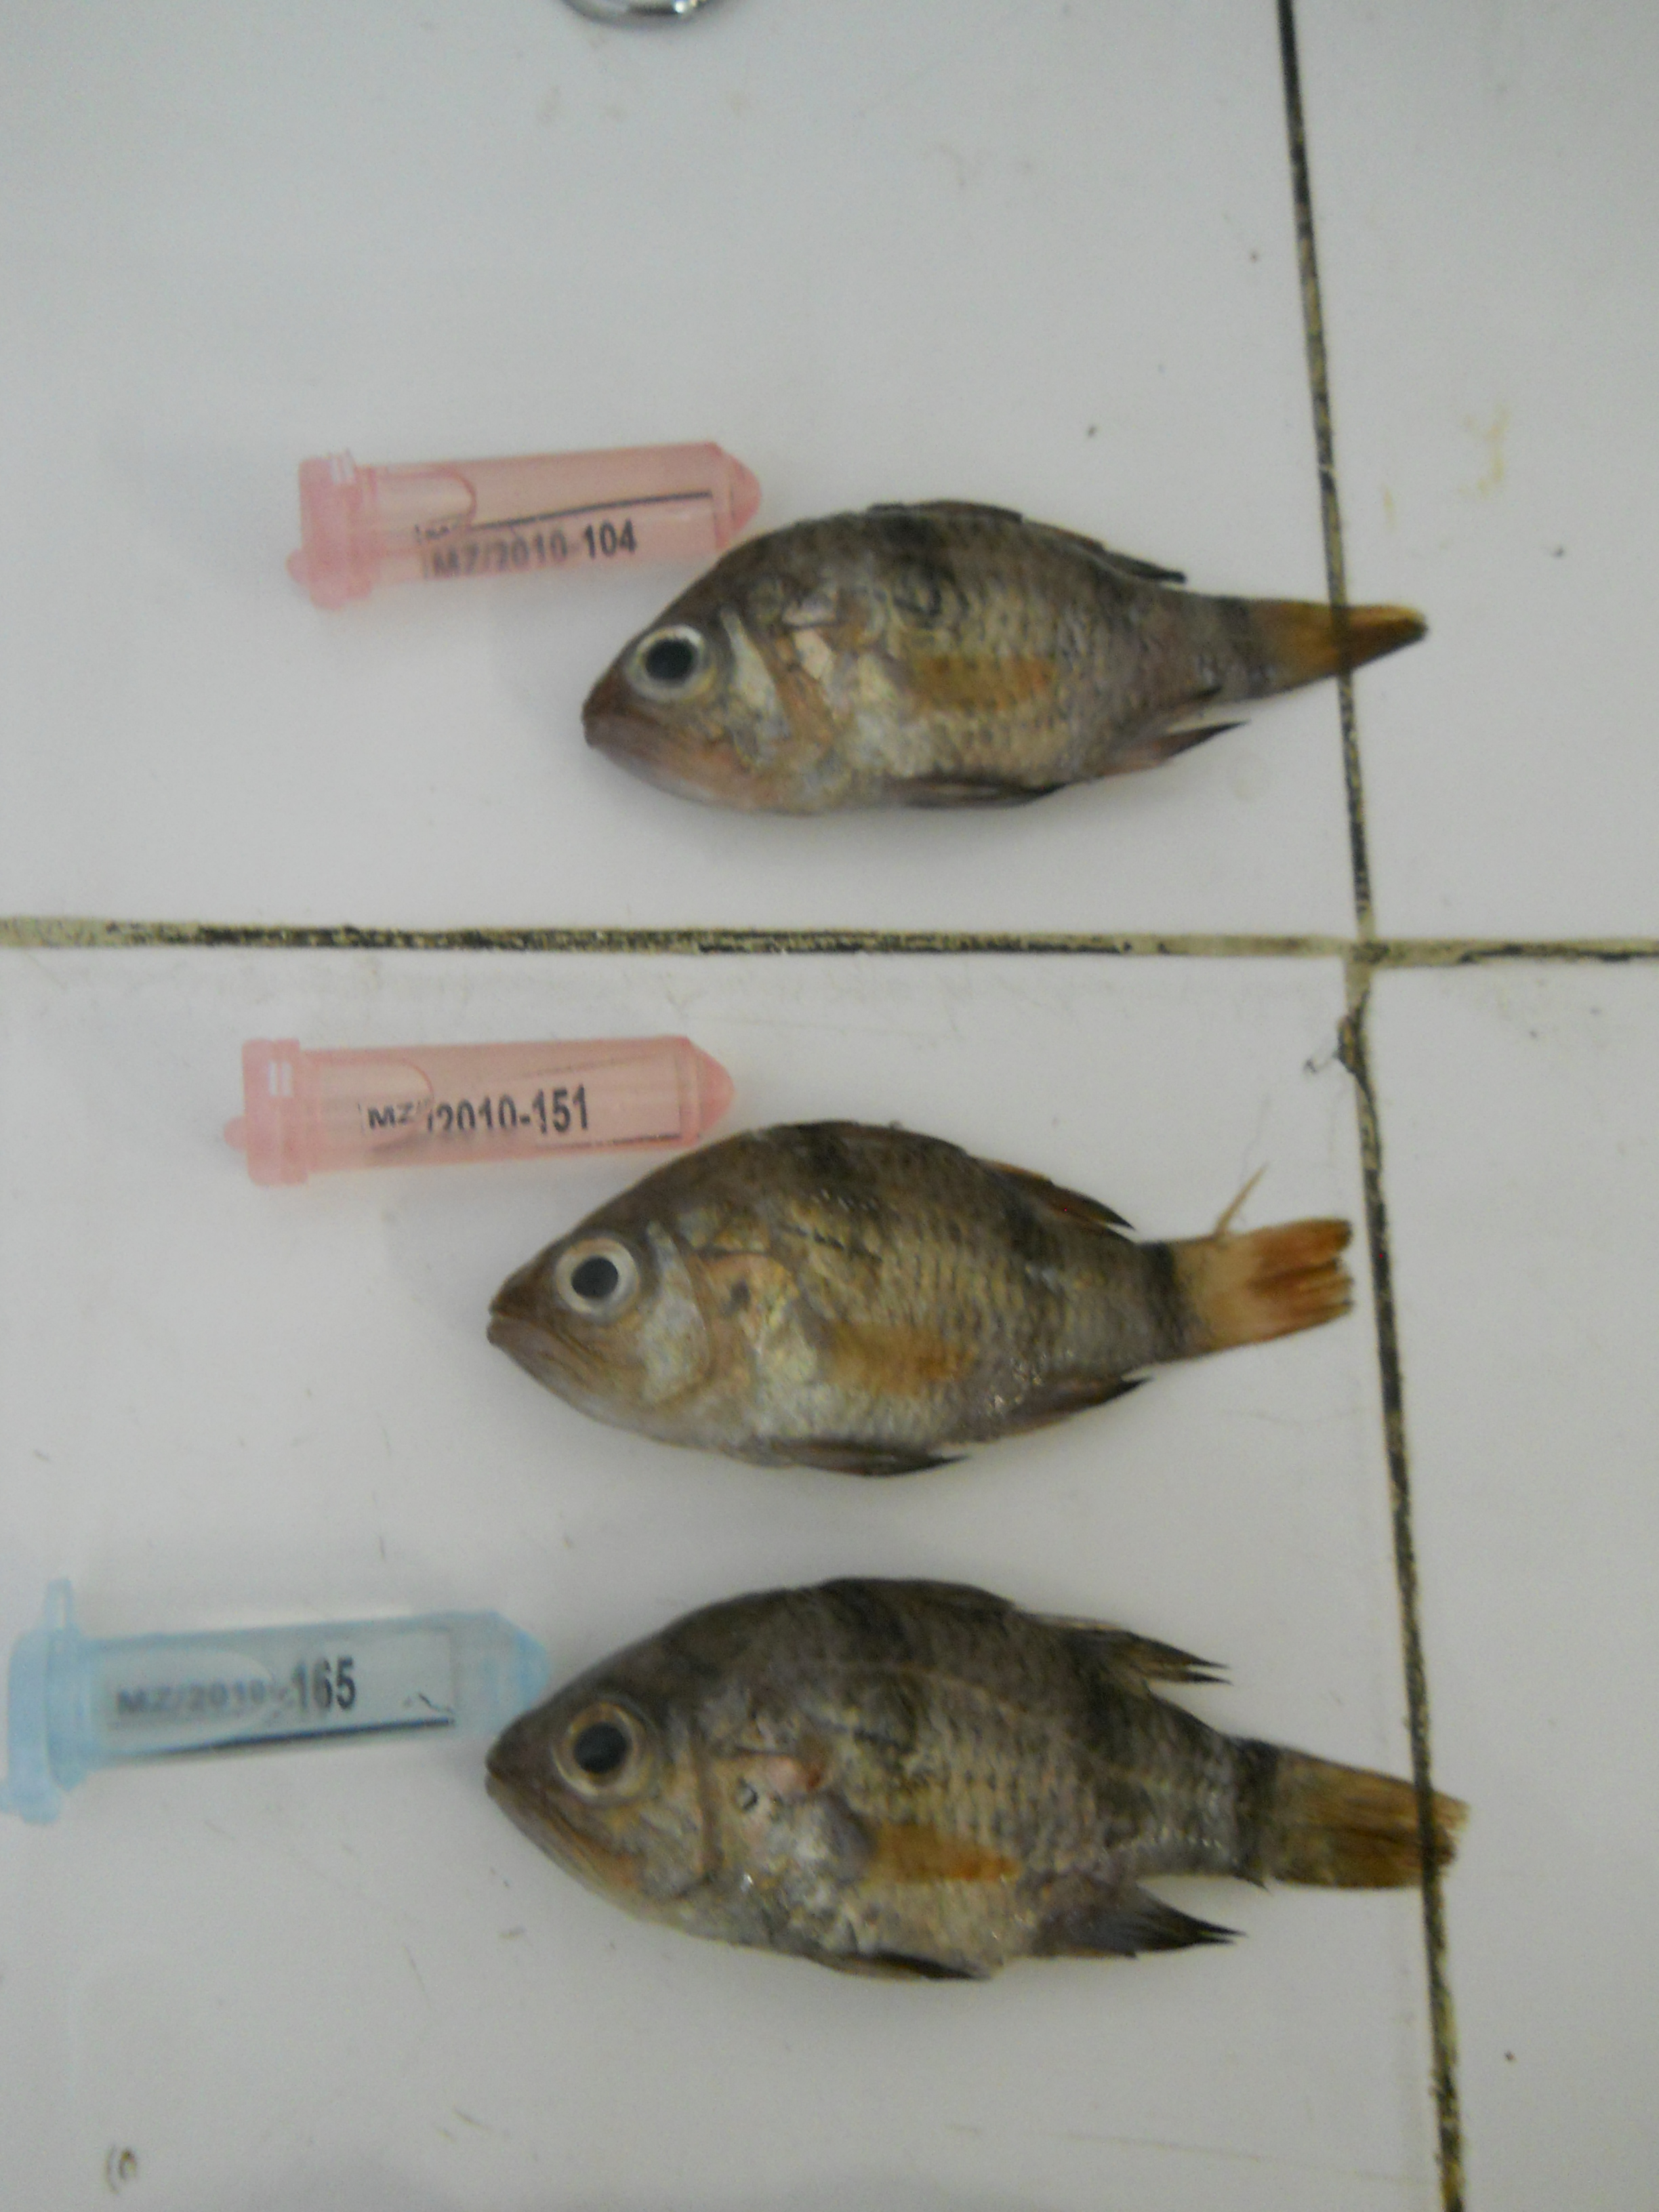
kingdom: Animalia
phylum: Chordata
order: Perciformes
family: Apogonidae
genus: Apogonichthyoides
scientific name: Apogonichthyoides pharaonis
